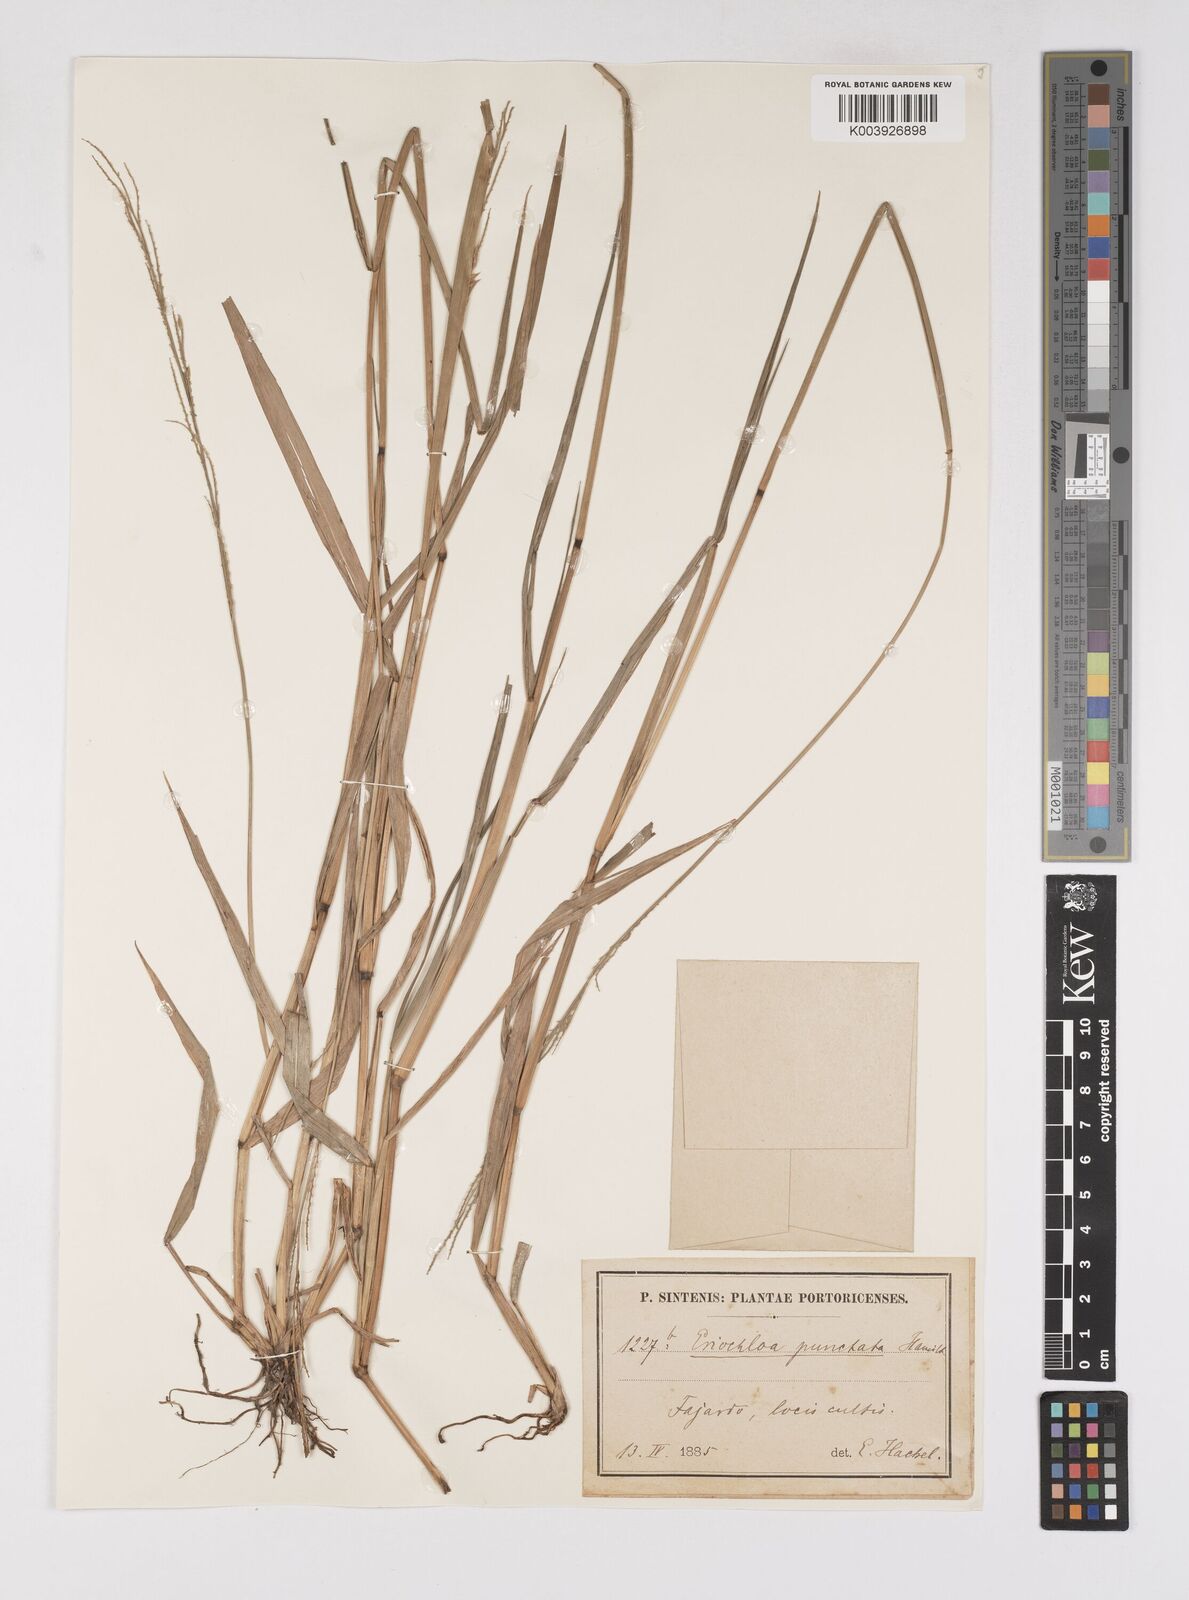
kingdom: Plantae
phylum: Tracheophyta
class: Liliopsida
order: Poales
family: Poaceae
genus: Eriochloa
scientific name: Eriochloa punctata
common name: Louisiana cupgrass
